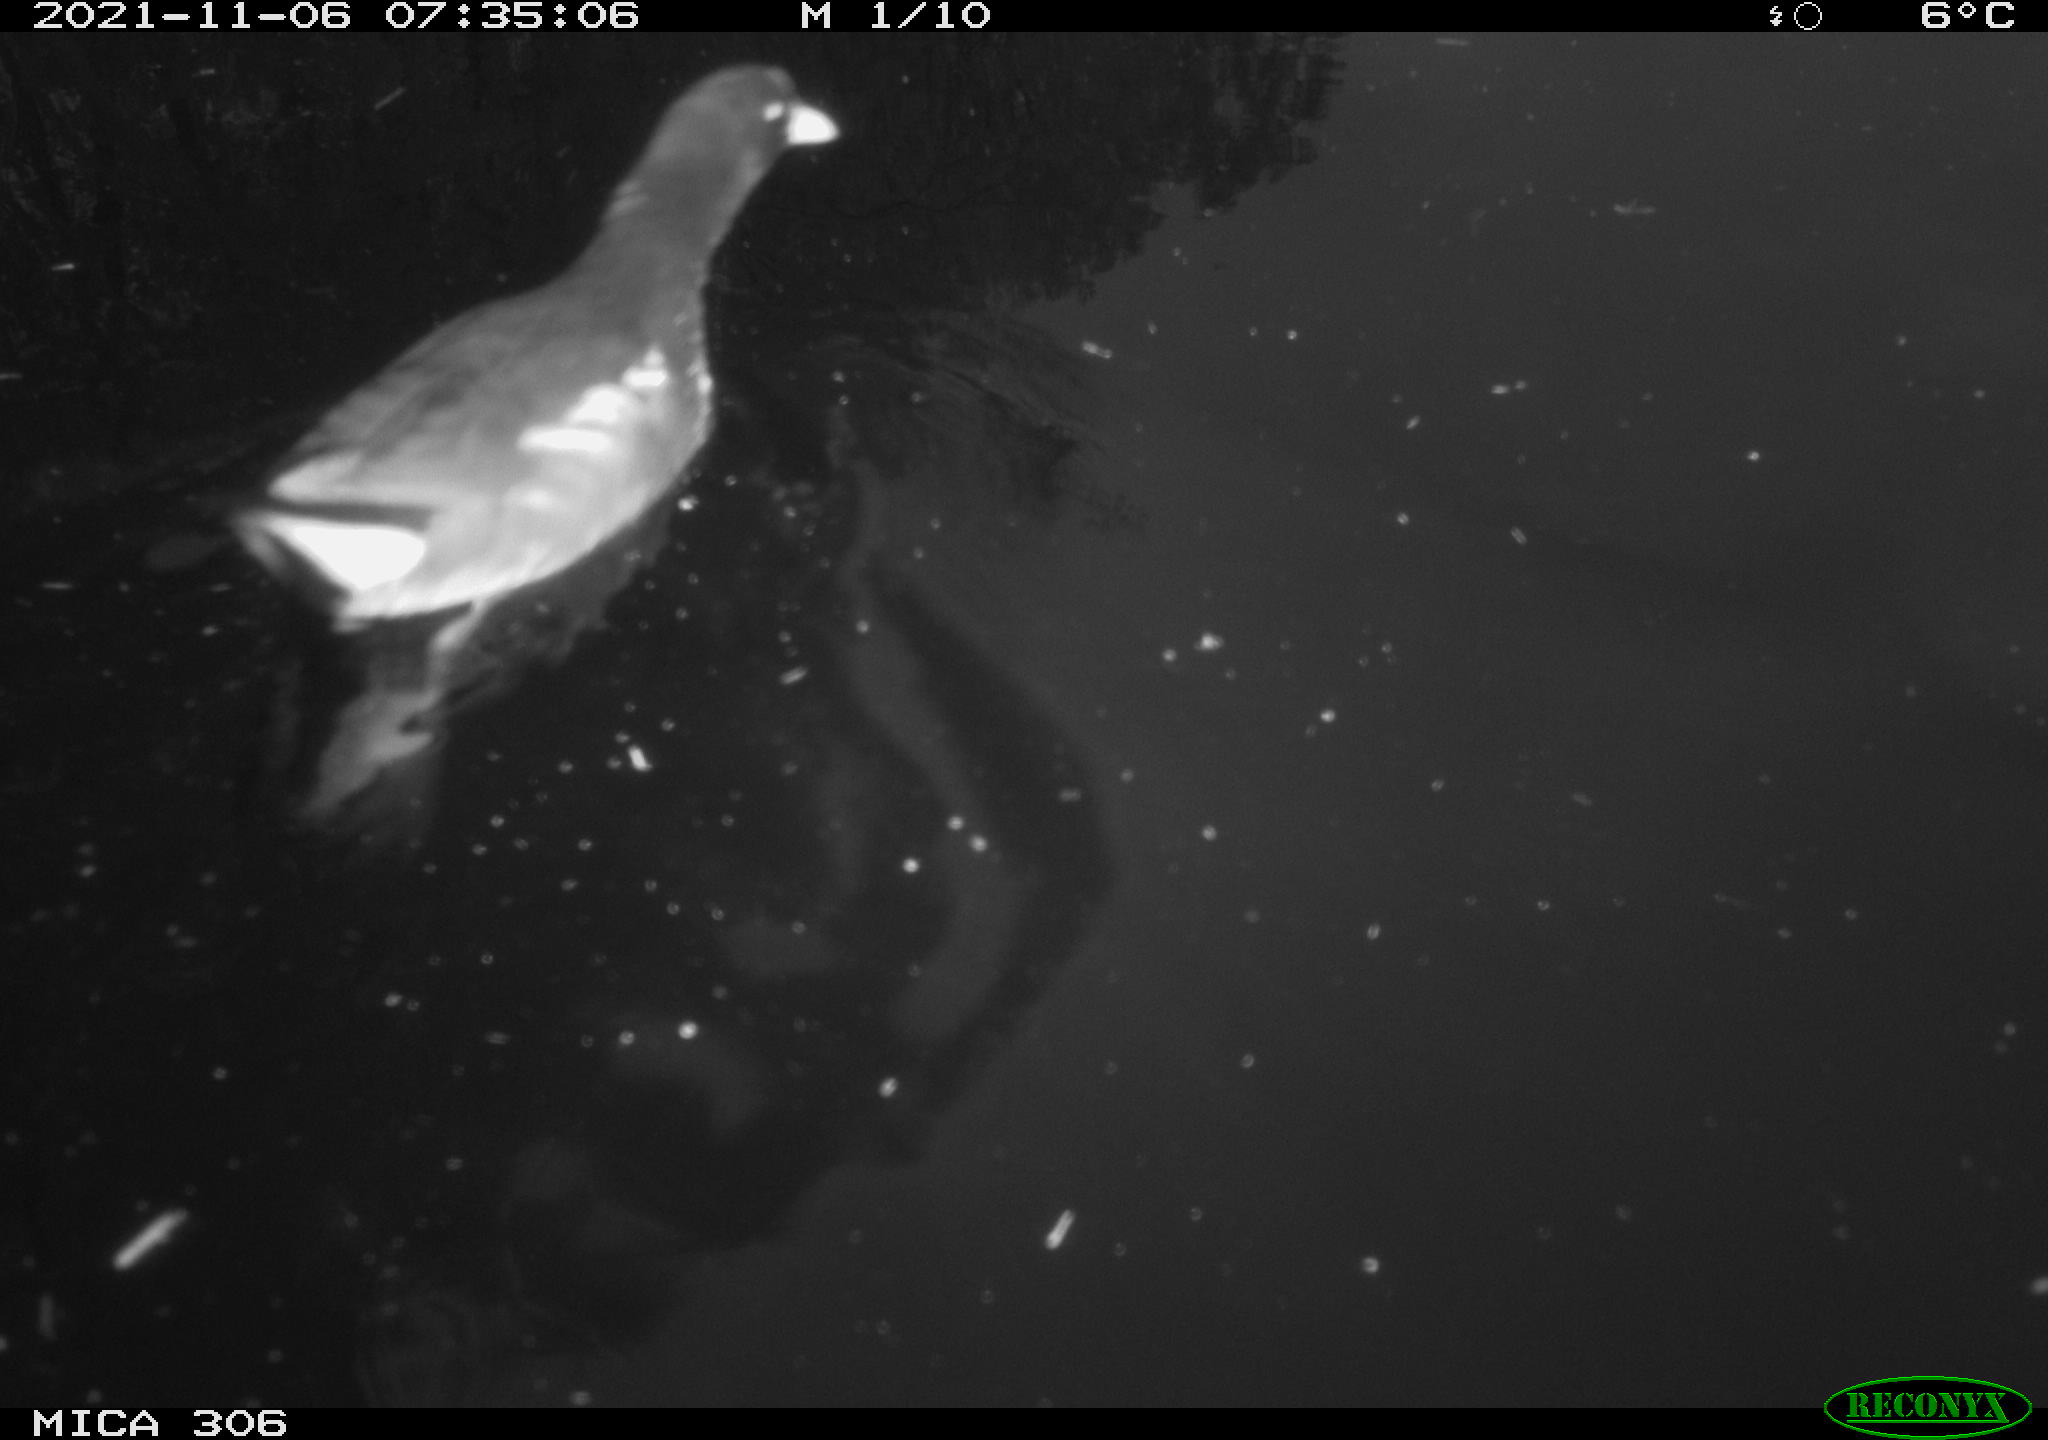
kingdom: Animalia
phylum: Chordata
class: Aves
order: Gruiformes
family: Rallidae
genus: Gallinula
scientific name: Gallinula chloropus
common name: Common moorhen
